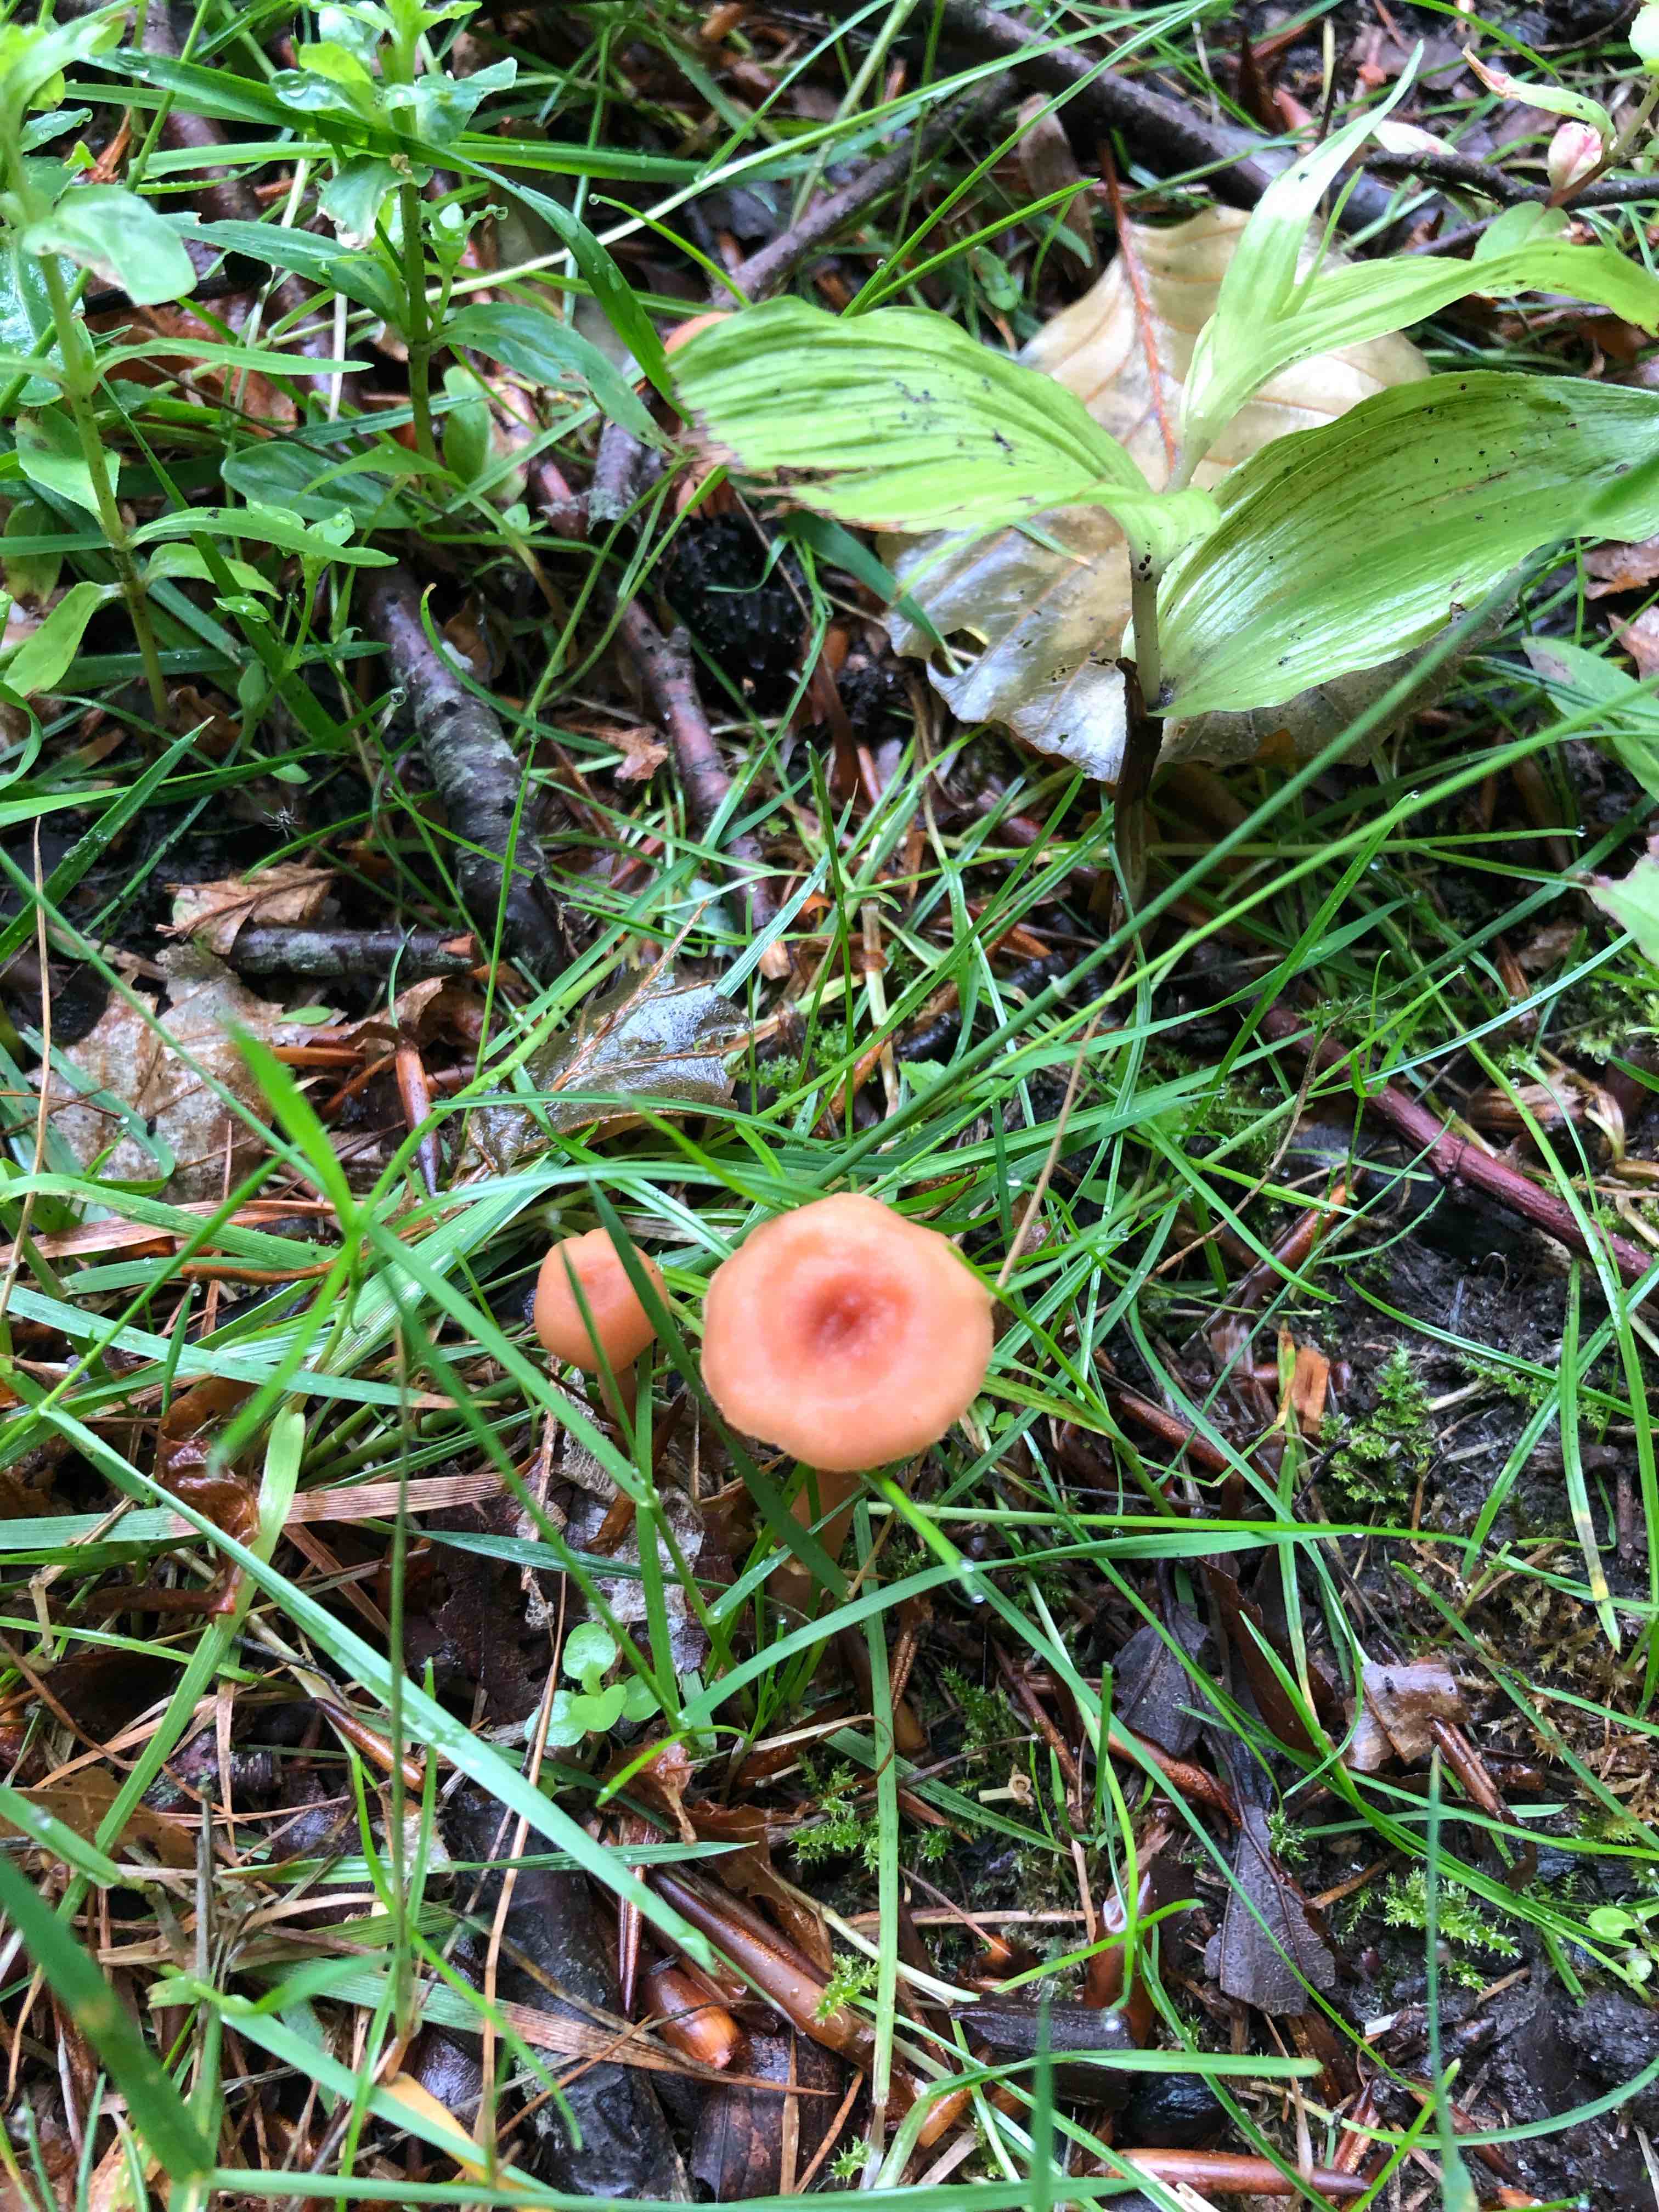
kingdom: Fungi
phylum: Basidiomycota
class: Agaricomycetes
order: Agaricales
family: Hydnangiaceae
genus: Laccaria
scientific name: Laccaria laccata
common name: rød ametysthat
